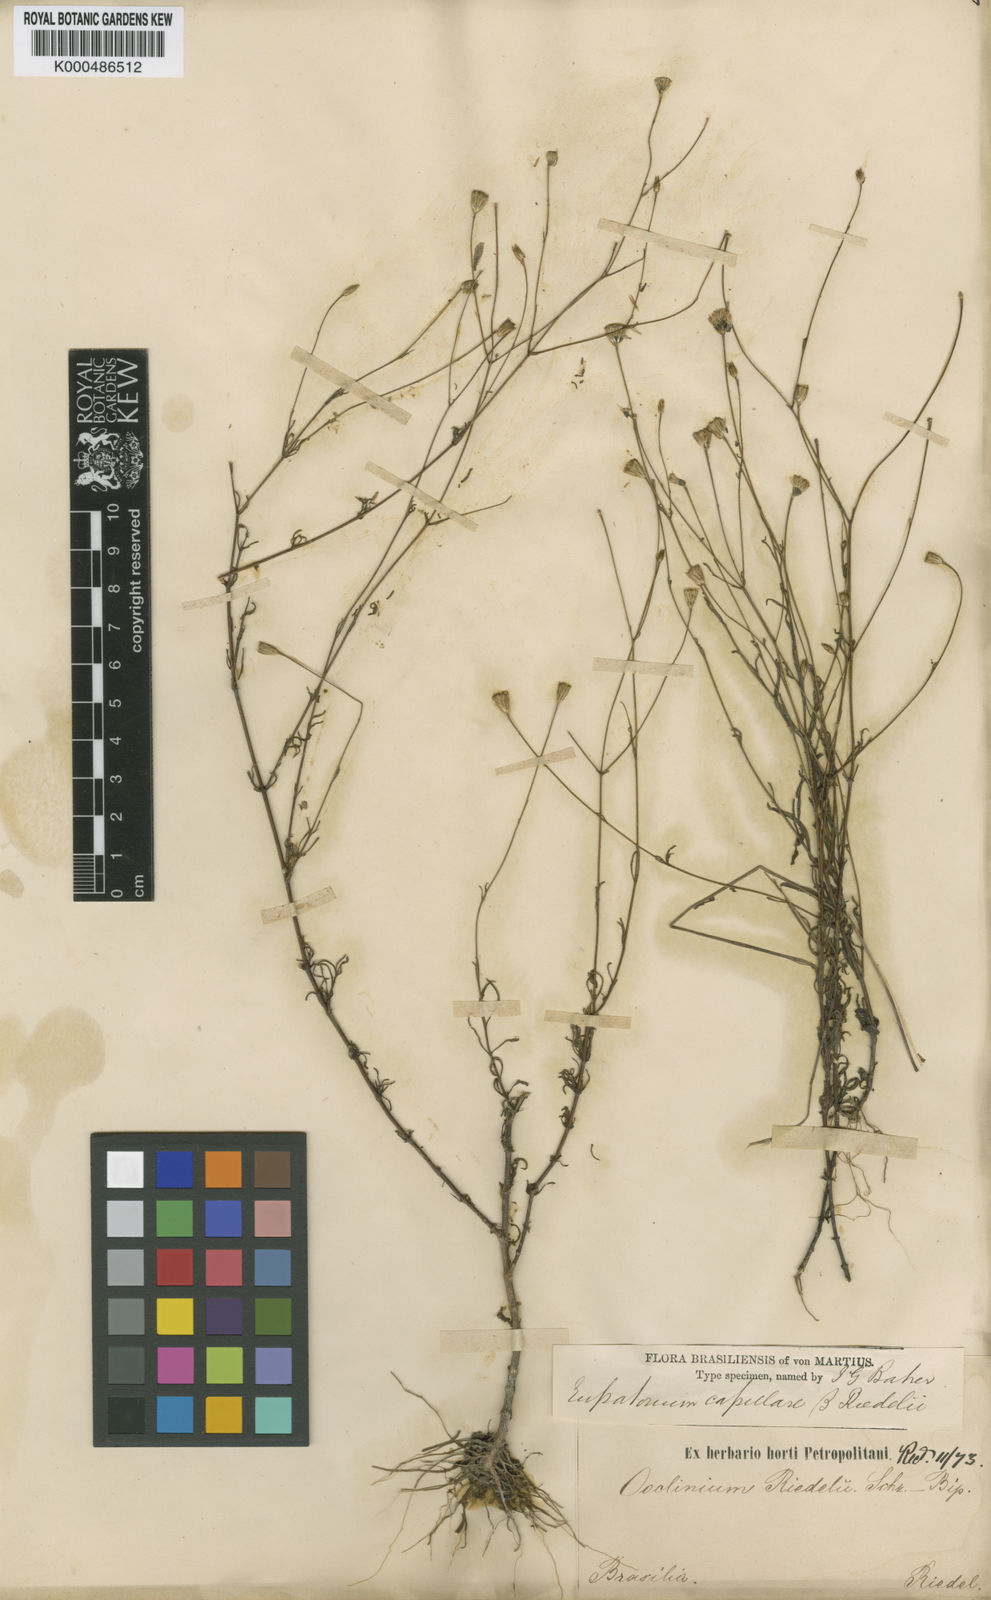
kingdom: Plantae
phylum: Tracheophyta
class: Magnoliopsida
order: Asterales
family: Asteraceae
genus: Brickellia
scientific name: Brickellia diffusa
